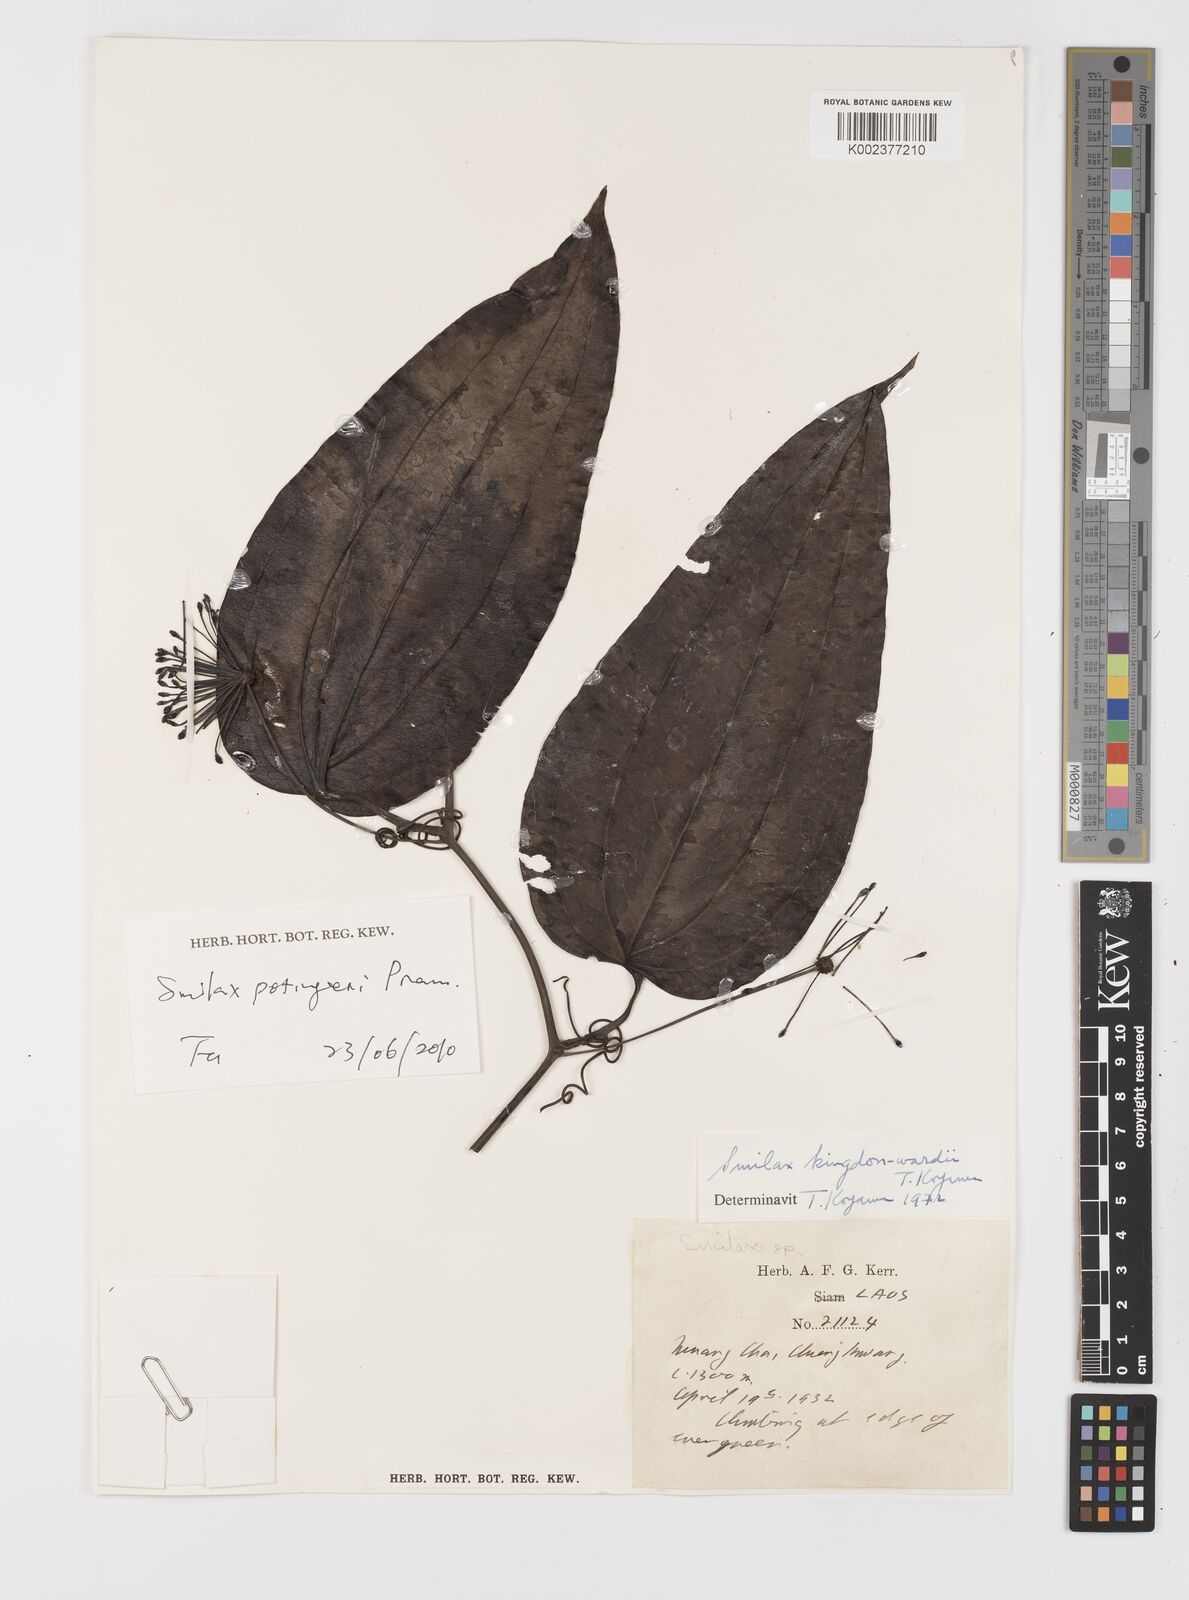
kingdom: Plantae
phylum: Tracheophyta
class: Liliopsida
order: Liliales
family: Smilacaceae
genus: Smilax
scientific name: Smilax
